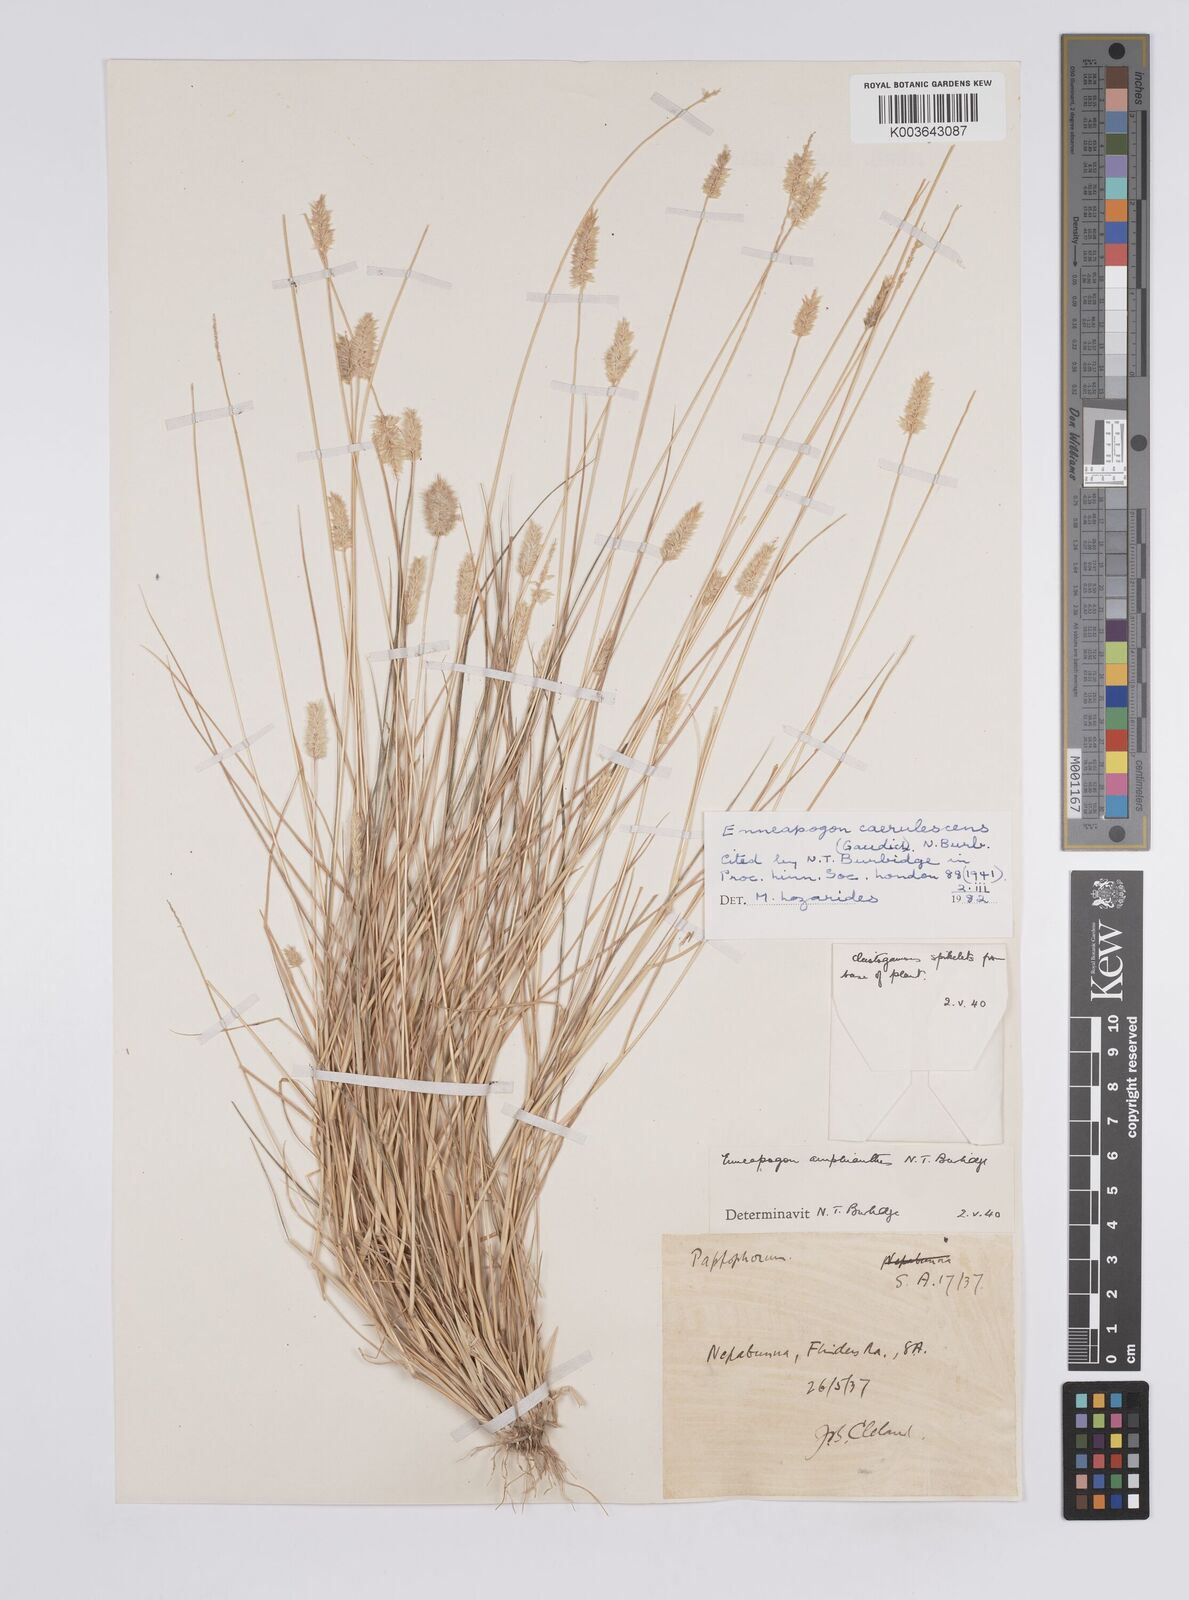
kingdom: Plantae
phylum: Tracheophyta
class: Liliopsida
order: Poales
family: Poaceae
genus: Enneapogon
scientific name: Enneapogon caerulescens
